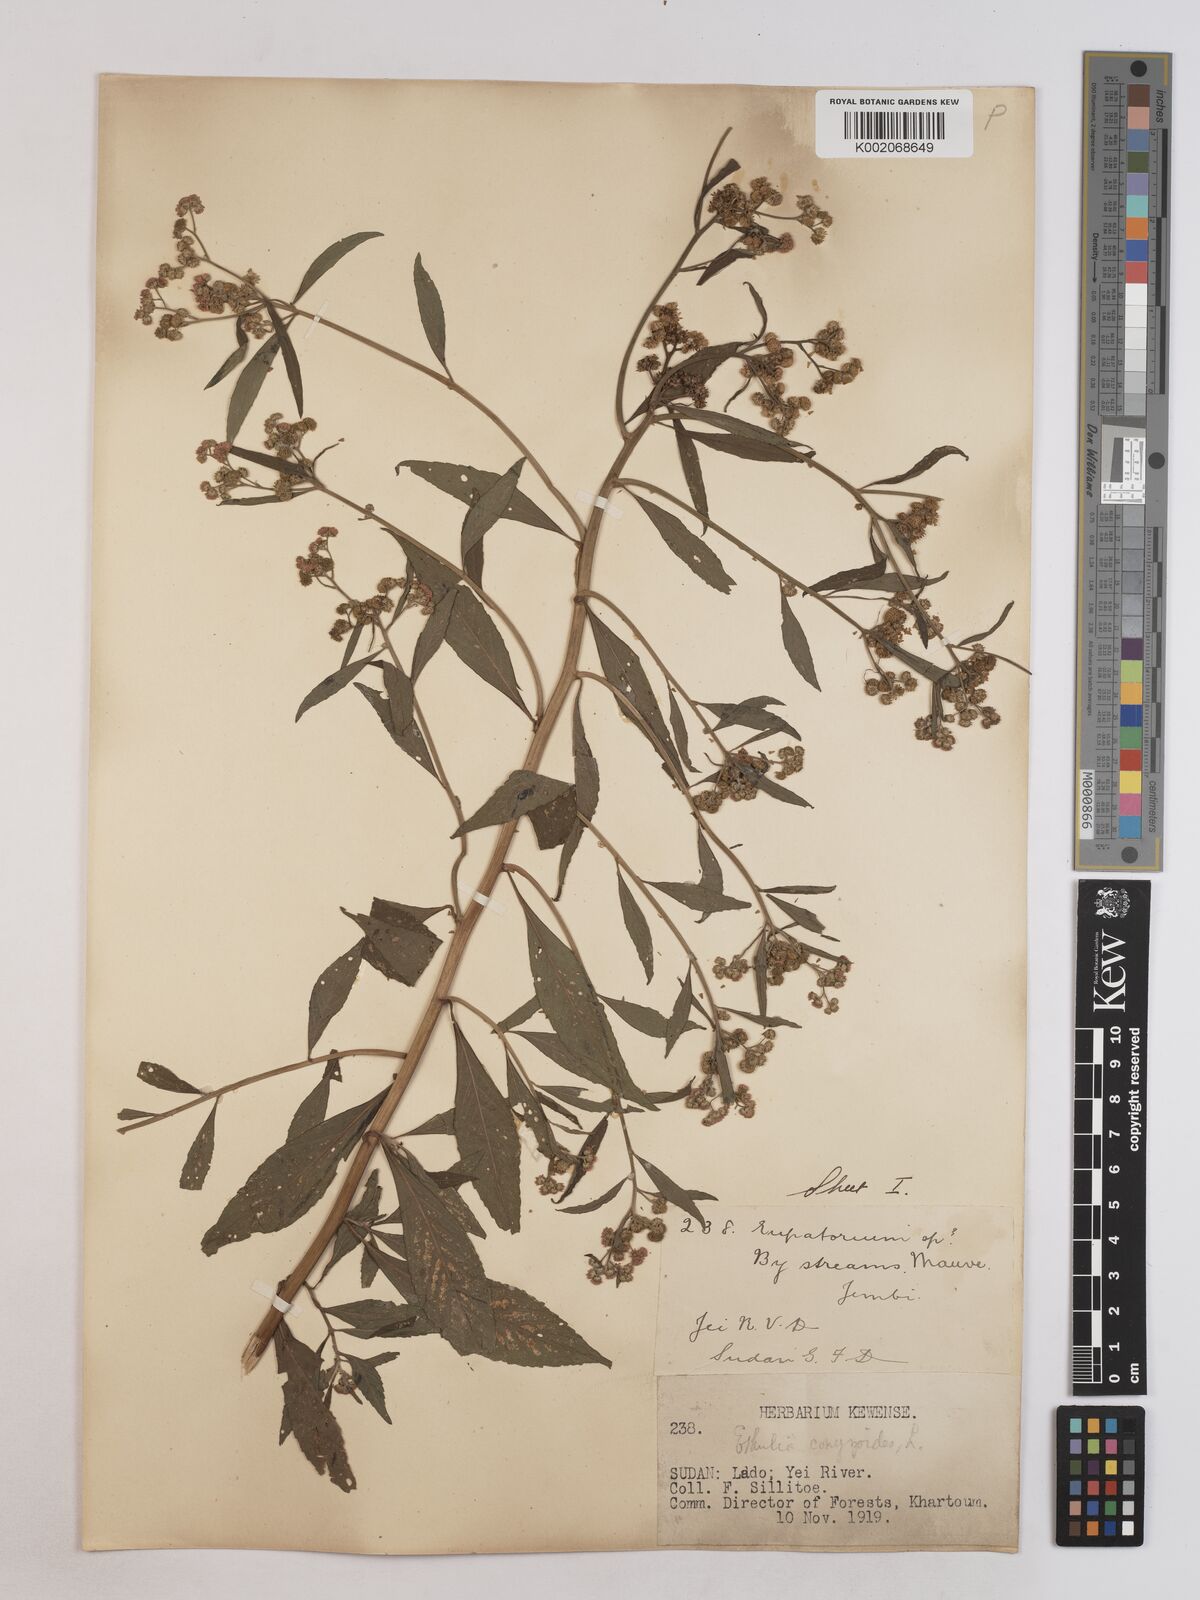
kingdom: Plantae
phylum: Tracheophyta
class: Magnoliopsida
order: Asterales
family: Asteraceae
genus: Ethulia
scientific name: Ethulia conyzoides
